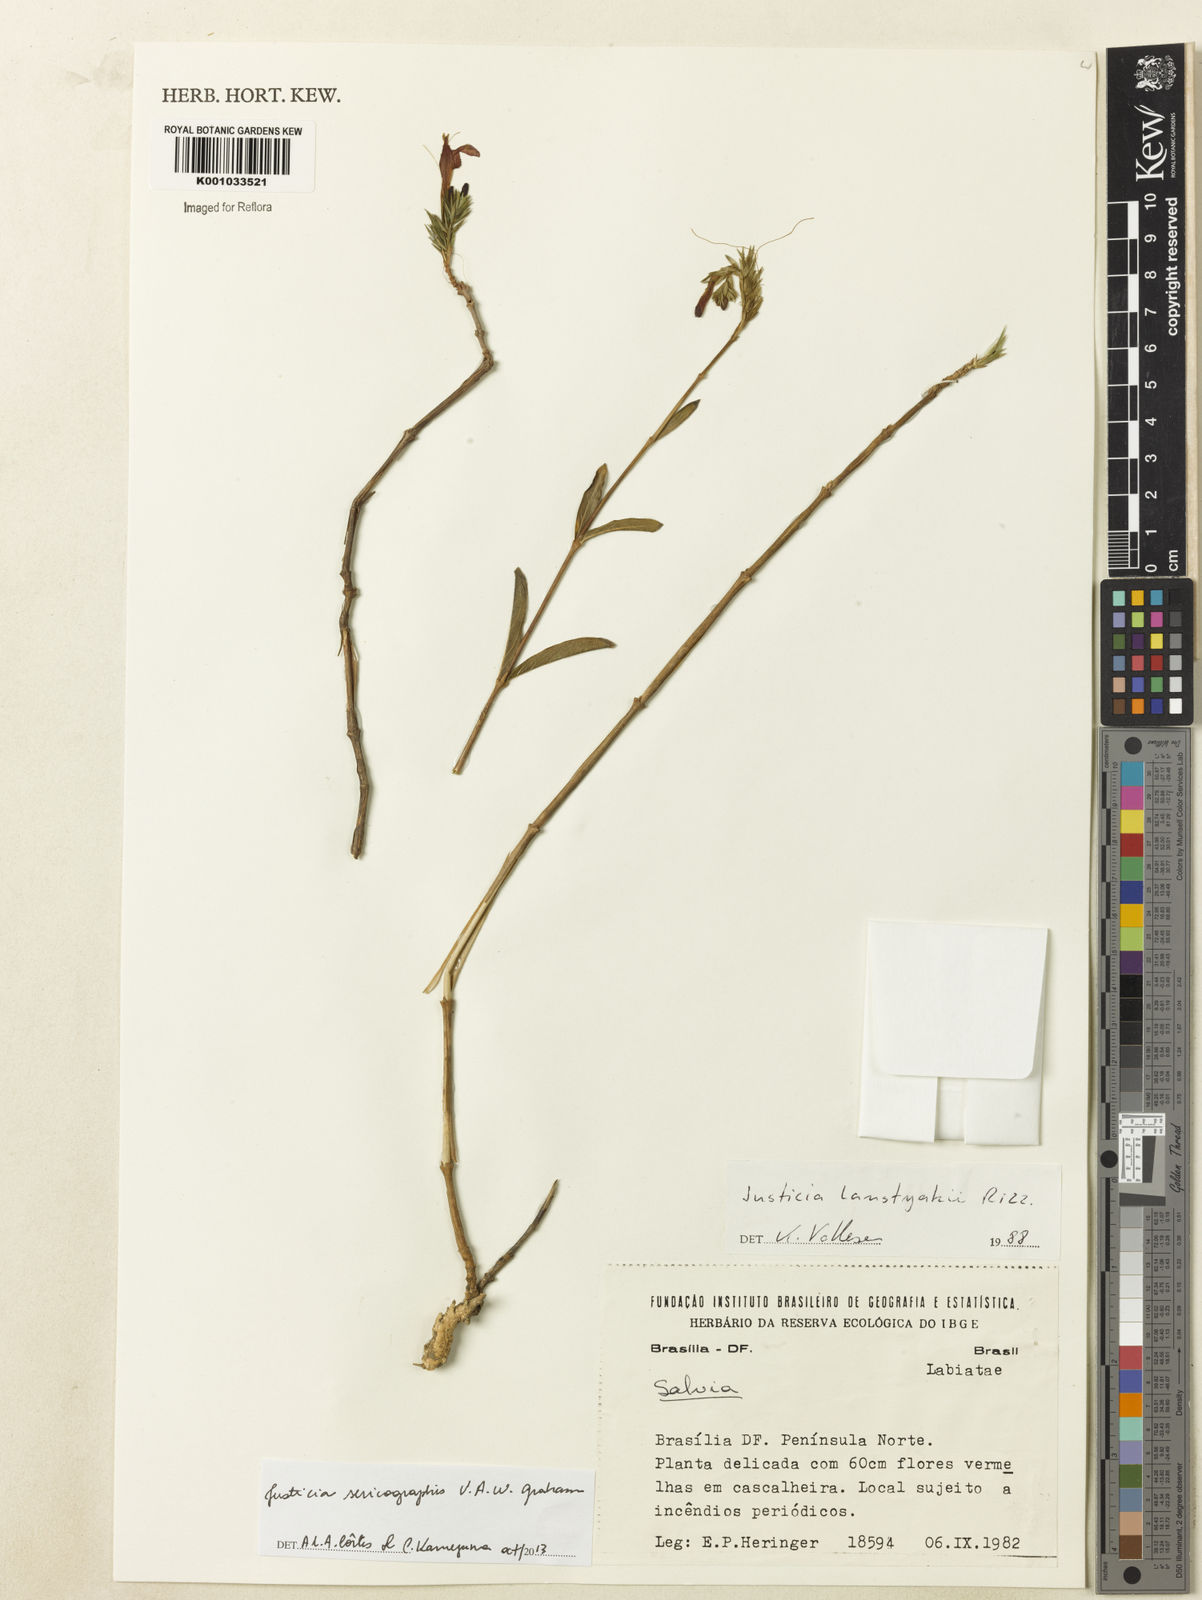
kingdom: Plantae
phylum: Tracheophyta
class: Magnoliopsida
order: Lamiales
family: Acanthaceae
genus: Dianthera
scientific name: Dianthera rigida
